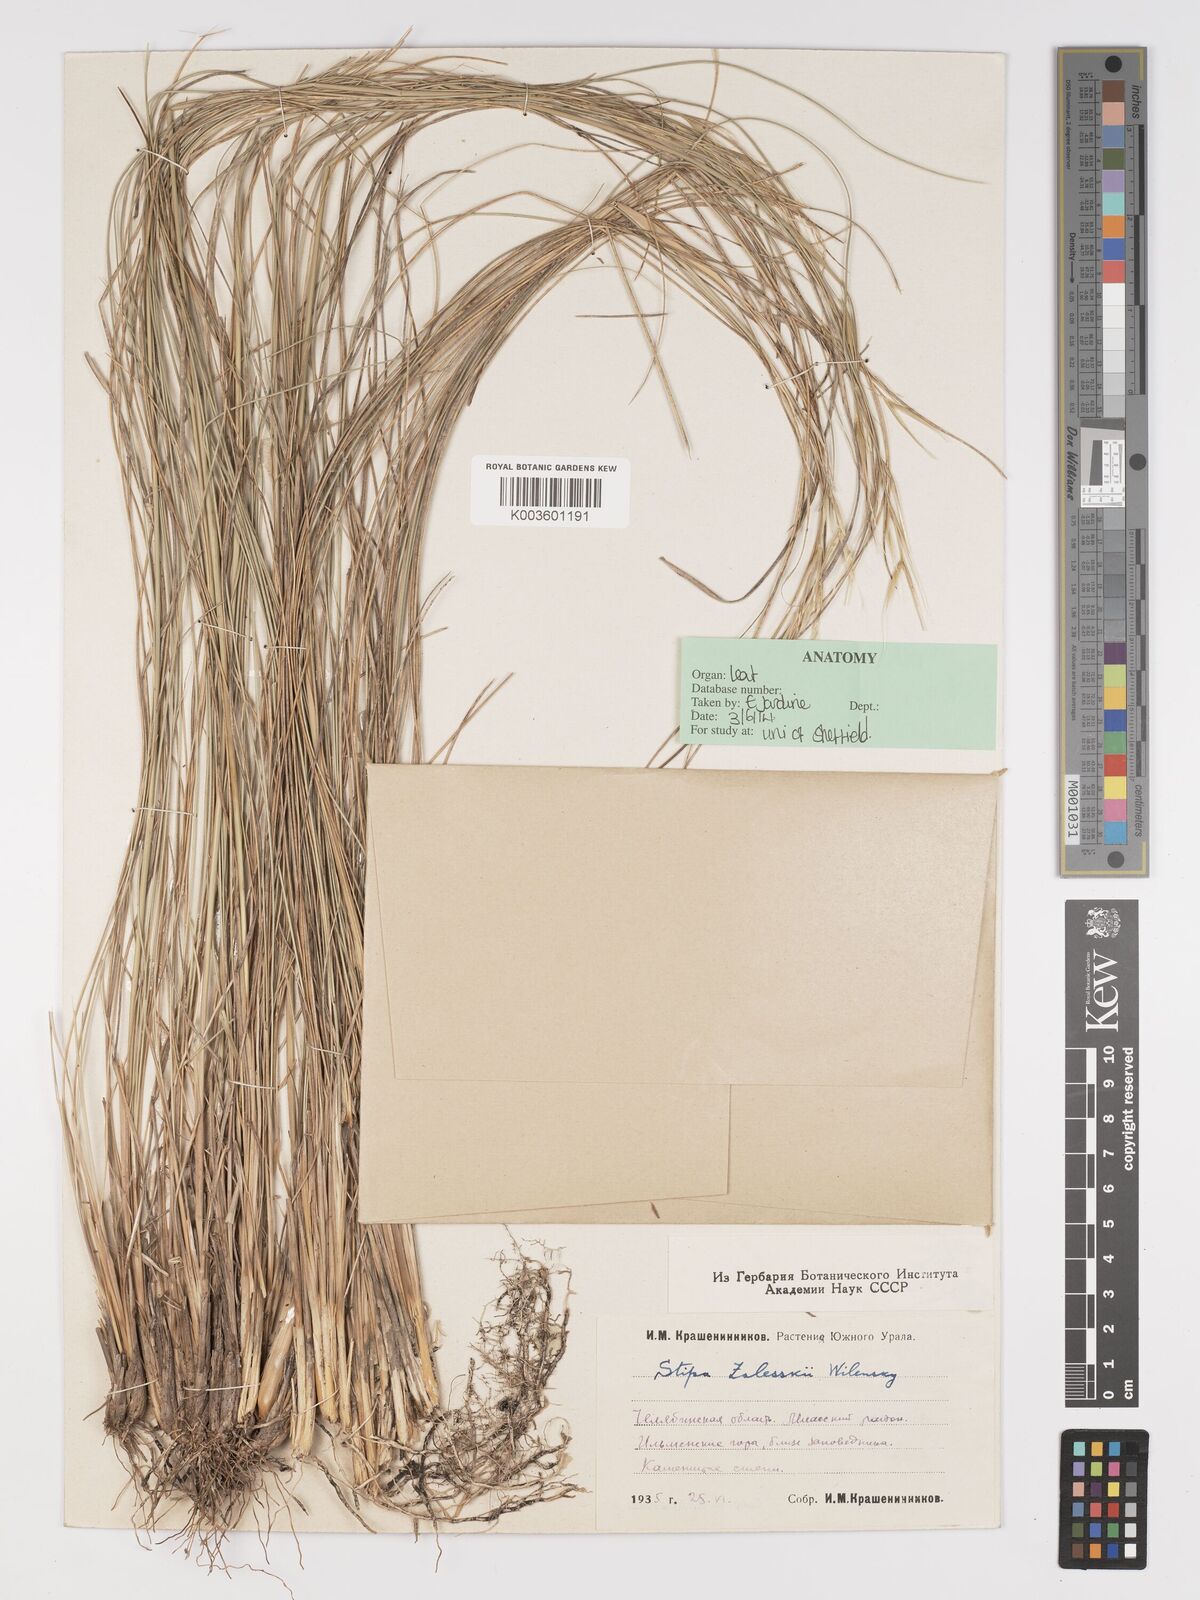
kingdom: Plantae
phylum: Tracheophyta
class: Liliopsida
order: Poales
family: Poaceae
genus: Stipa
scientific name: Stipa
